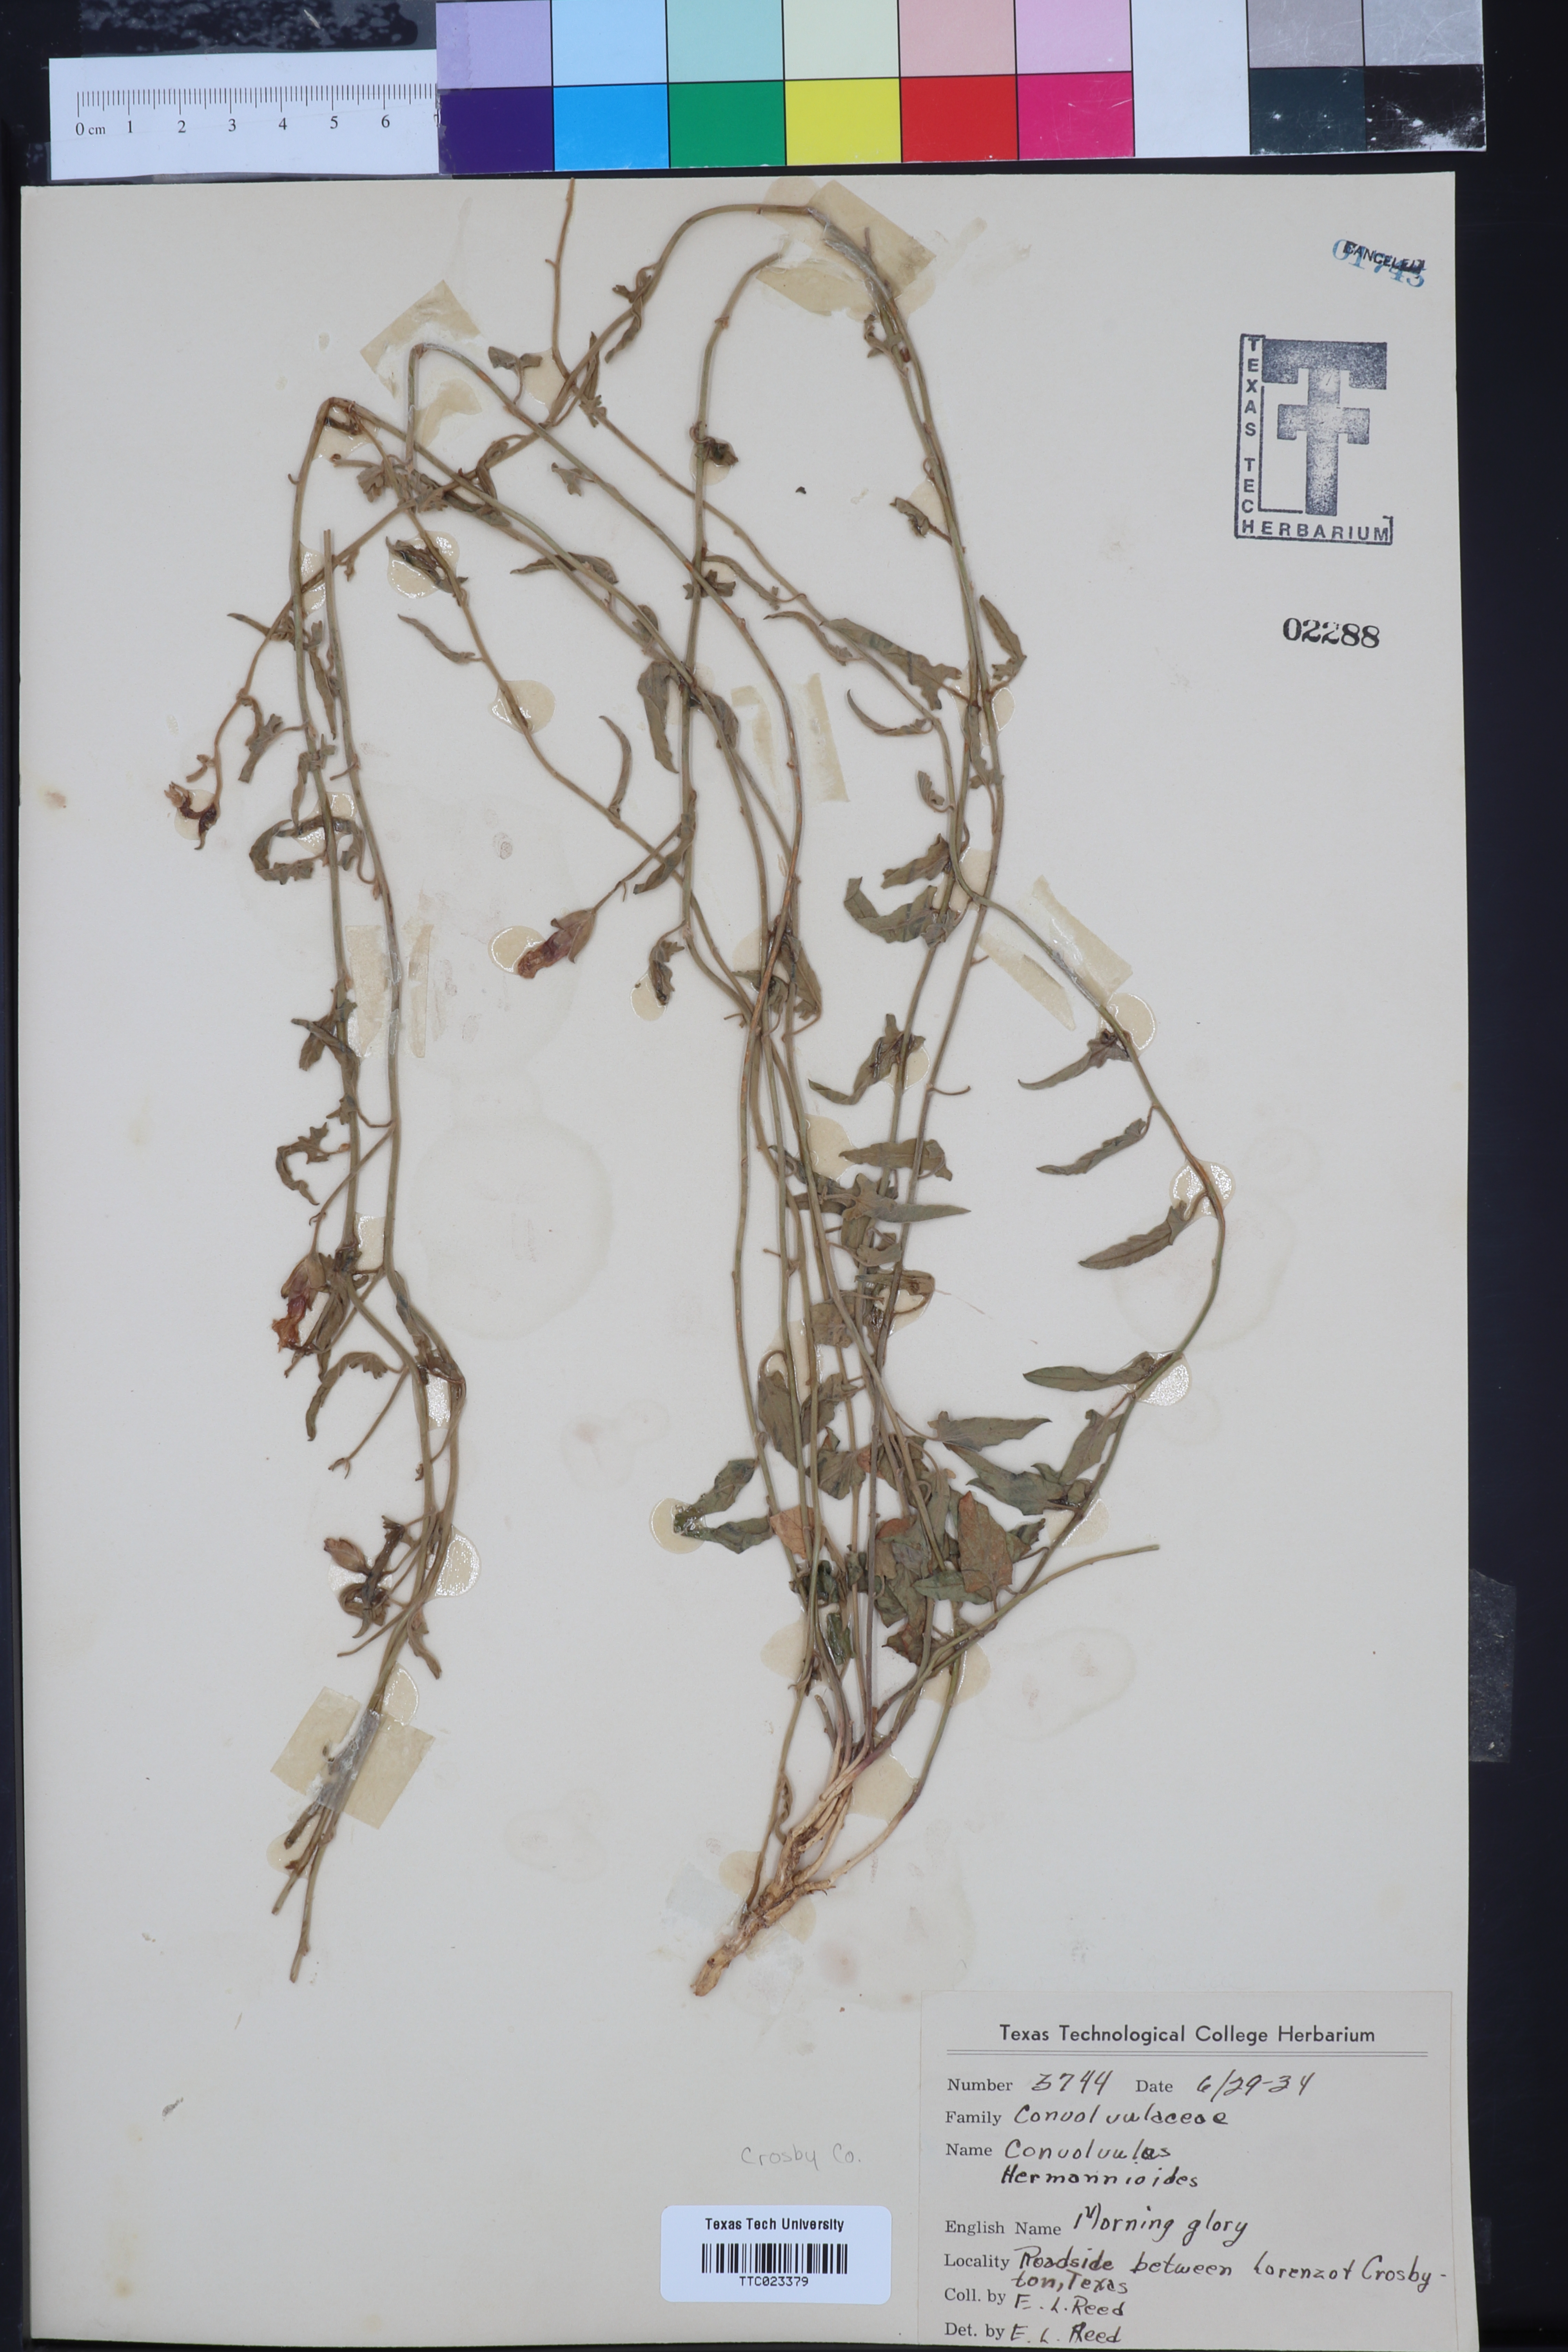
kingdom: Plantae
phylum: Tracheophyta
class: Magnoliopsida
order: Solanales
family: Convolvulaceae
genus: Convolvulus
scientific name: Convolvulus equitans
